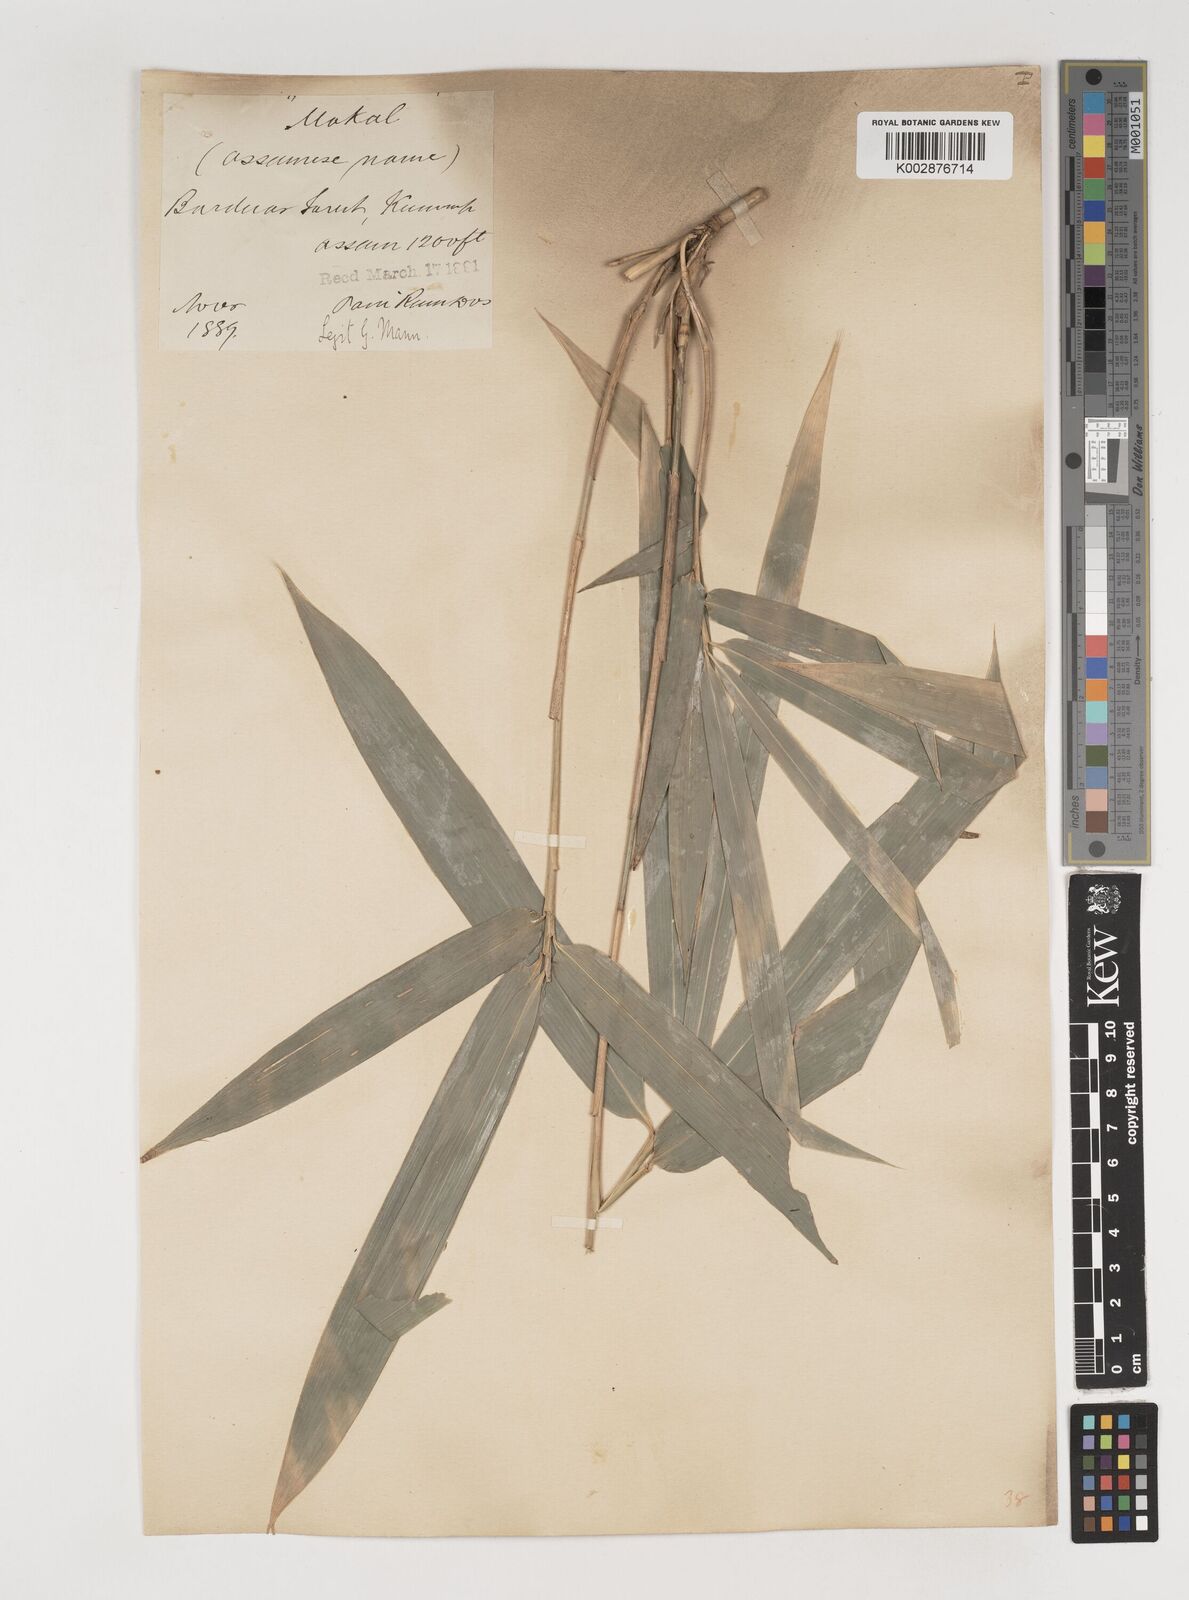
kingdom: Plantae
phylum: Tracheophyta
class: Liliopsida
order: Poales
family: Poaceae
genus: Bambusa
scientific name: Bambusa pallida
